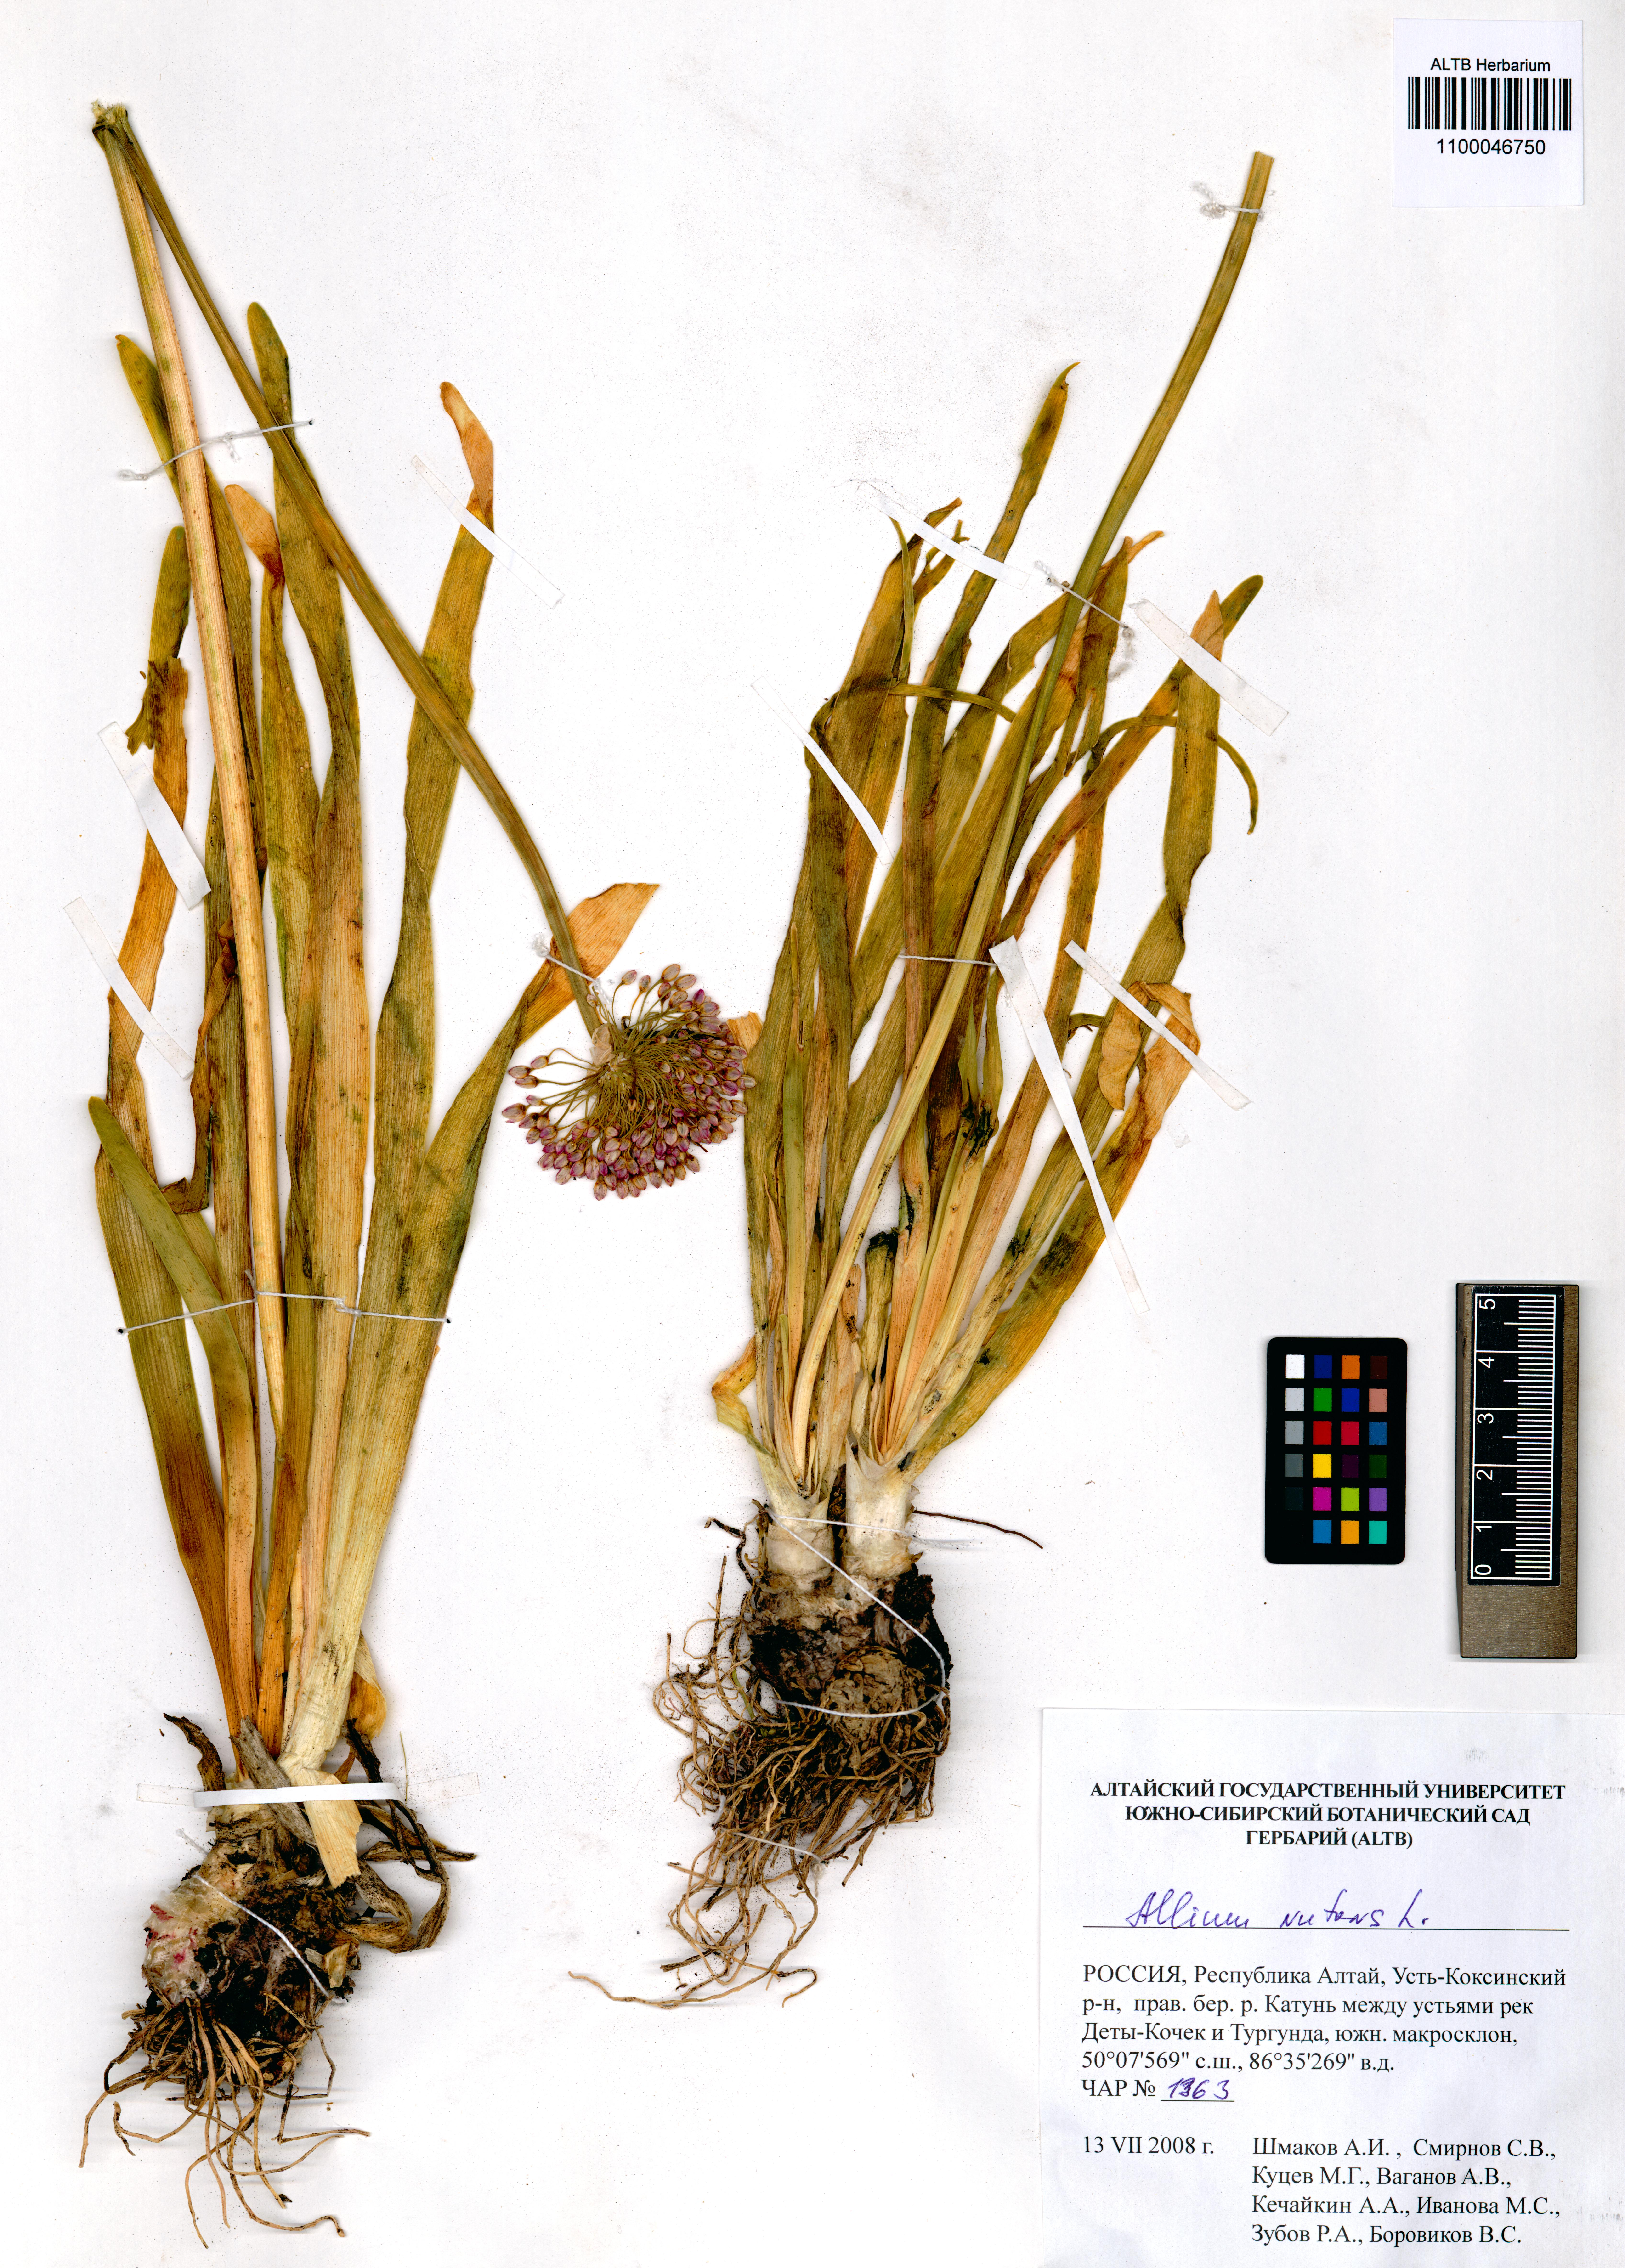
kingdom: Plantae
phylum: Tracheophyta
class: Liliopsida
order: Asparagales
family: Amaryllidaceae
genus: Allium
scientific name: Allium nutans
